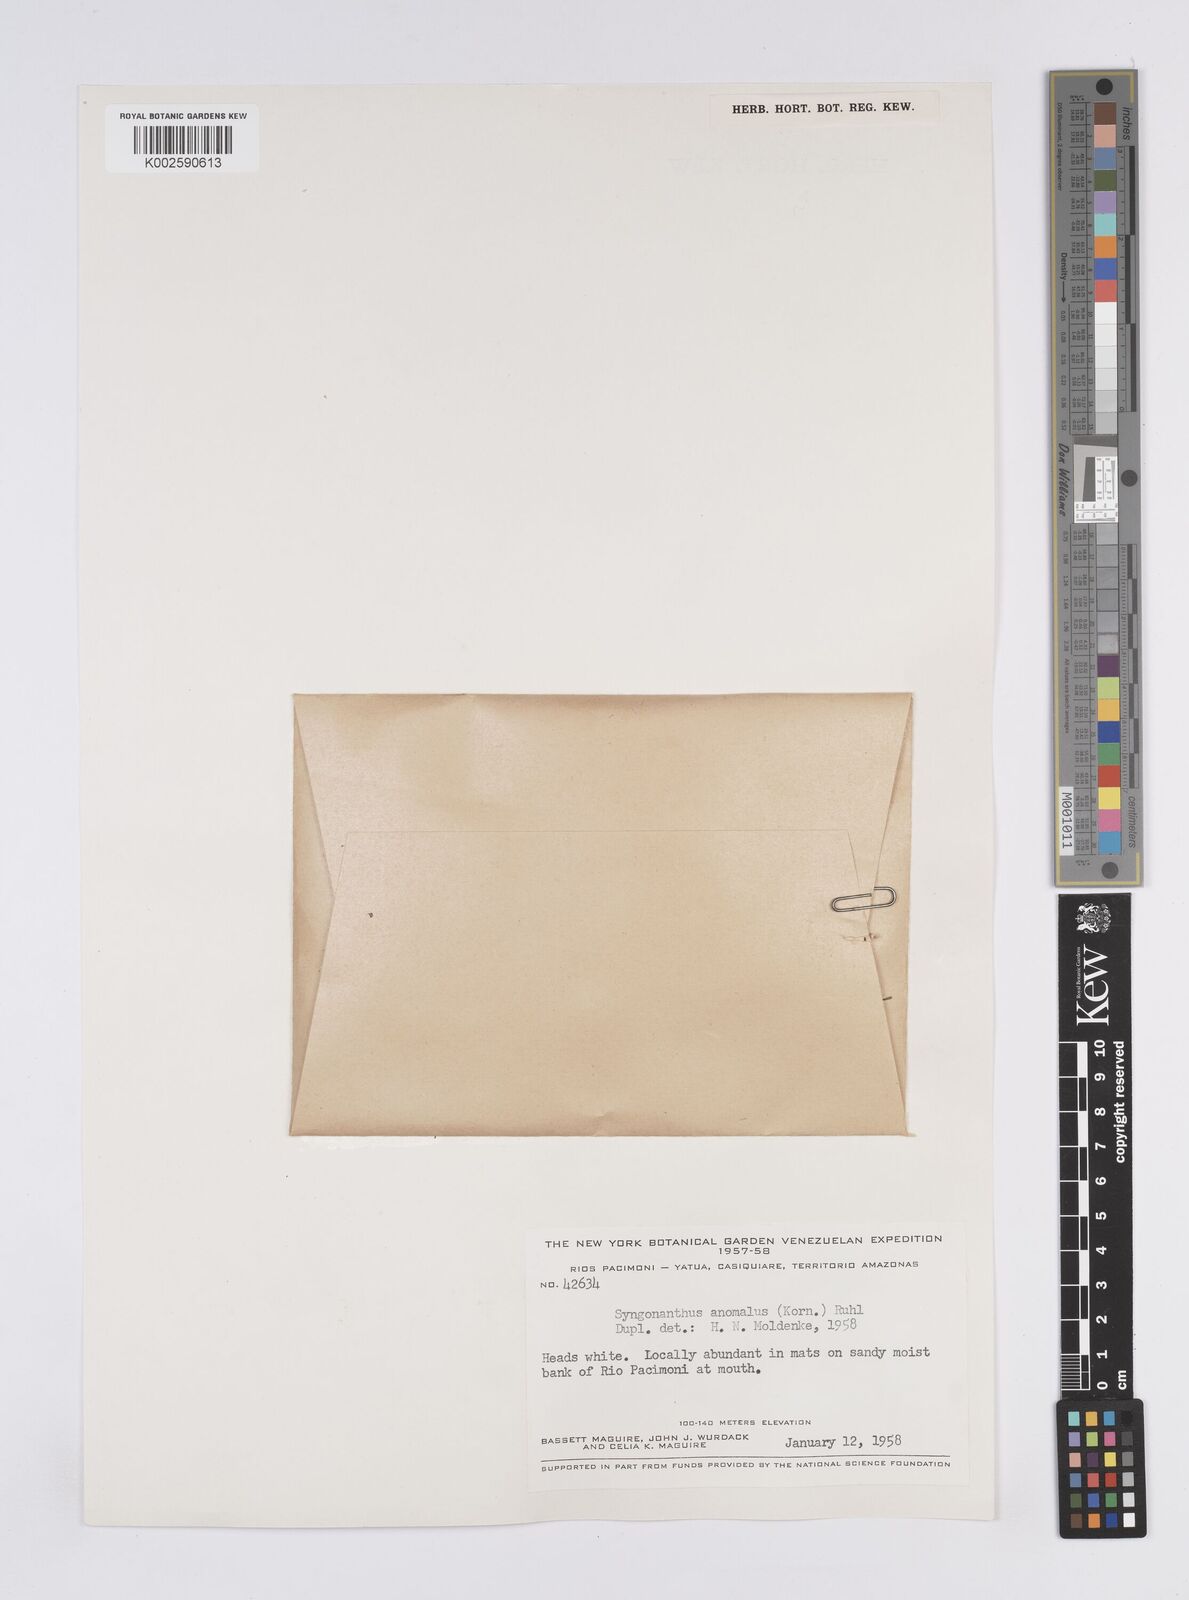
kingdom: Plantae
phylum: Tracheophyta
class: Liliopsida
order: Poales
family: Eriocaulaceae
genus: Syngonanthus
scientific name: Syngonanthus anomalus
